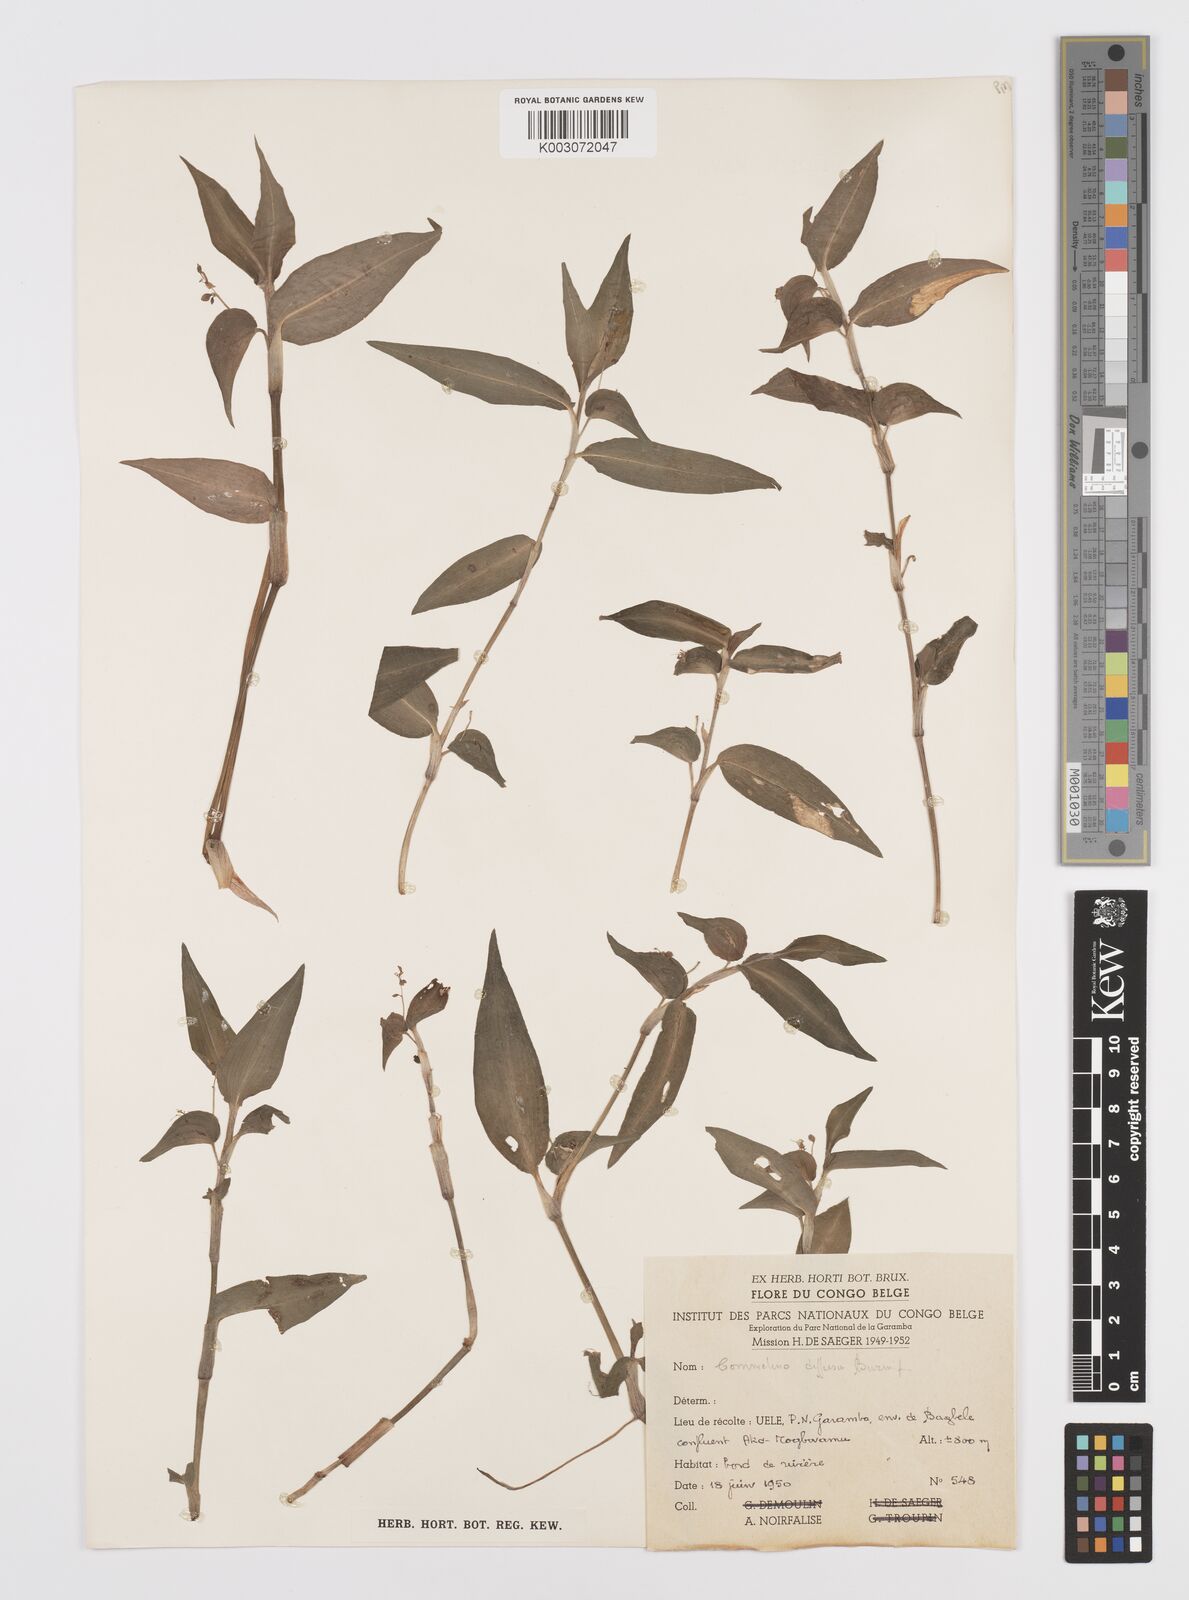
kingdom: Plantae
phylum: Tracheophyta
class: Liliopsida
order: Commelinales
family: Commelinaceae
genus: Commelina
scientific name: Commelina diffusa
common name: Climbing dayflower
